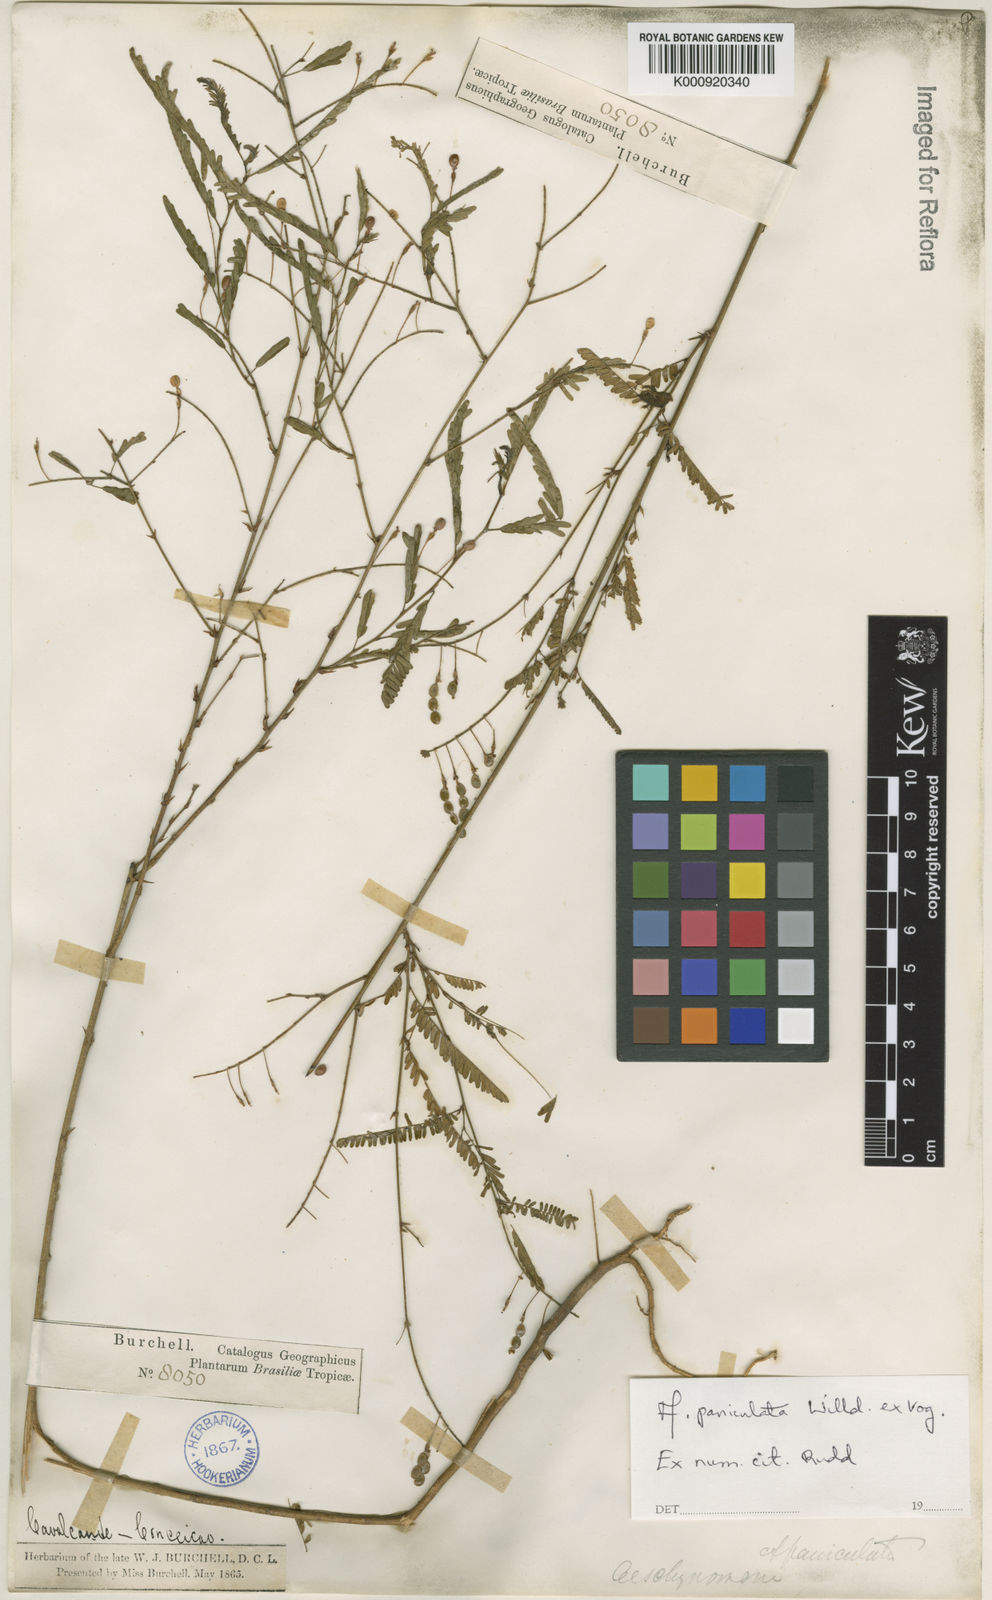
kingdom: Plantae
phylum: Tracheophyta
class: Magnoliopsida
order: Fabales
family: Fabaceae
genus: Ctenodon
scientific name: Ctenodon paniculatus
